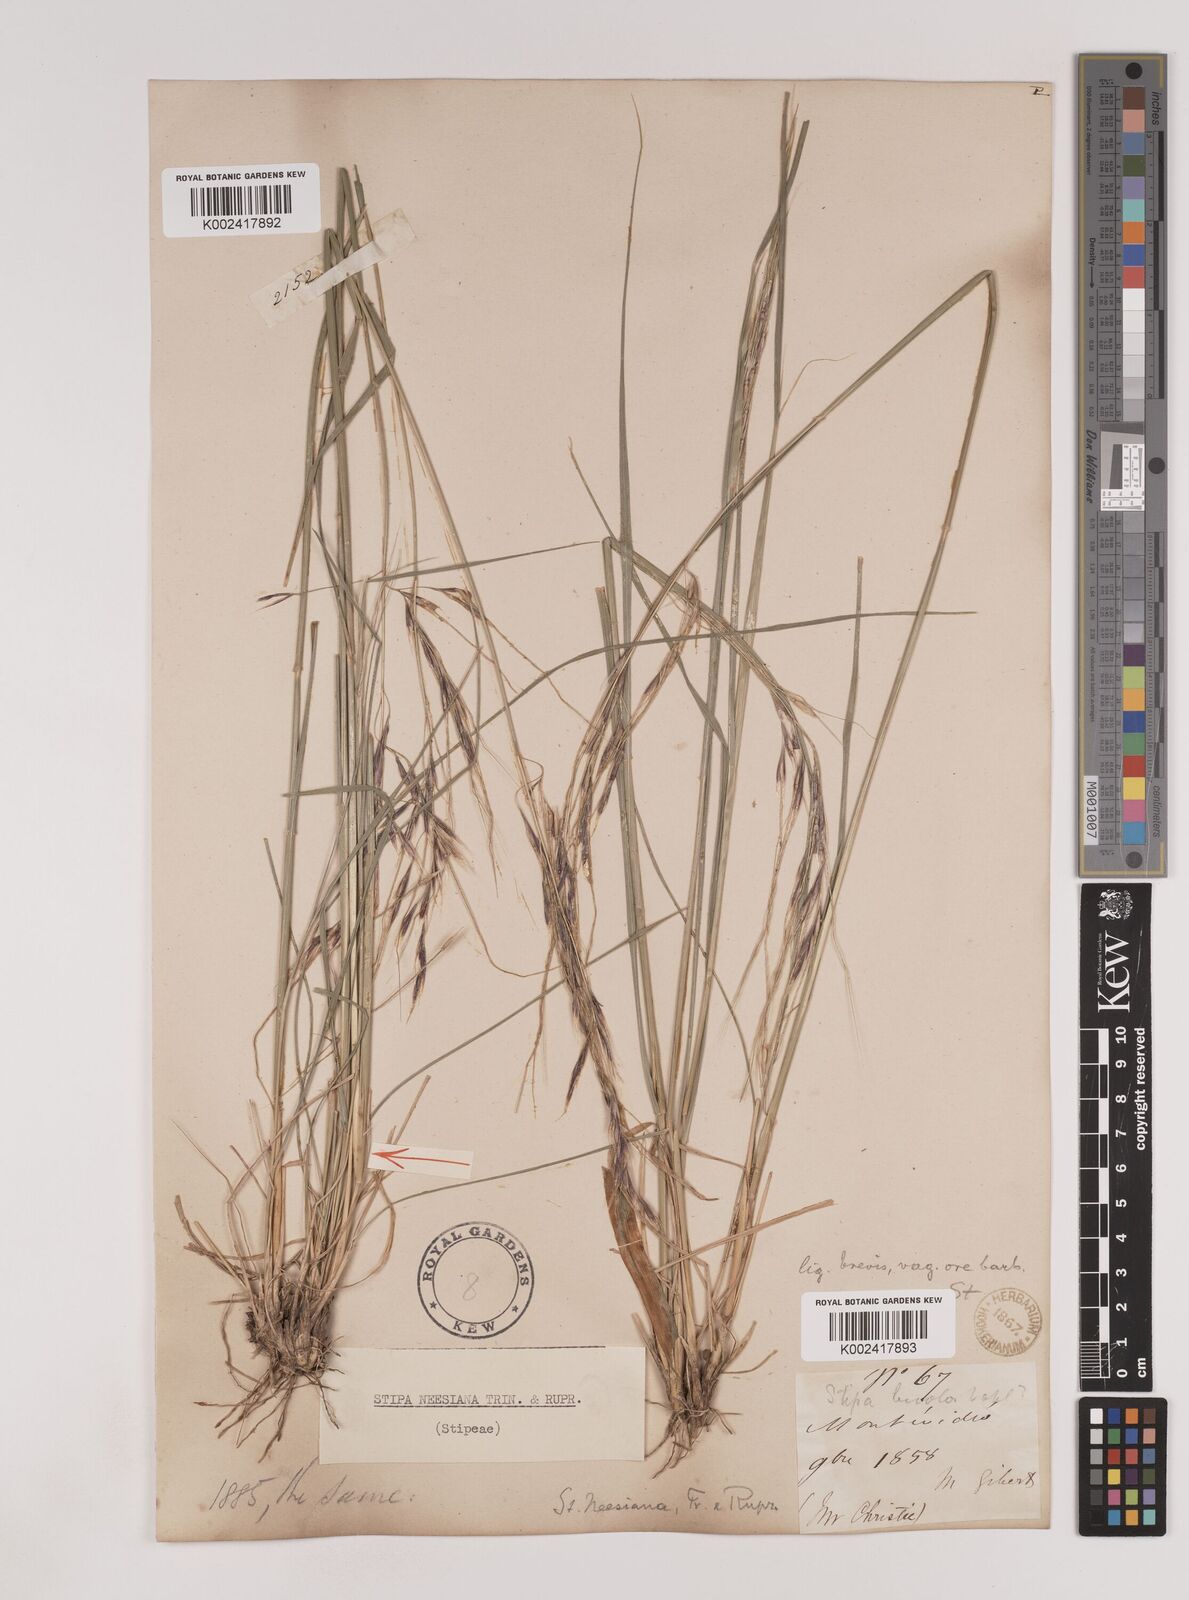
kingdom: Plantae
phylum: Tracheophyta
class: Liliopsida
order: Poales
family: Poaceae
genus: Nassella
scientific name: Nassella neesiana
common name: American needle-grass
